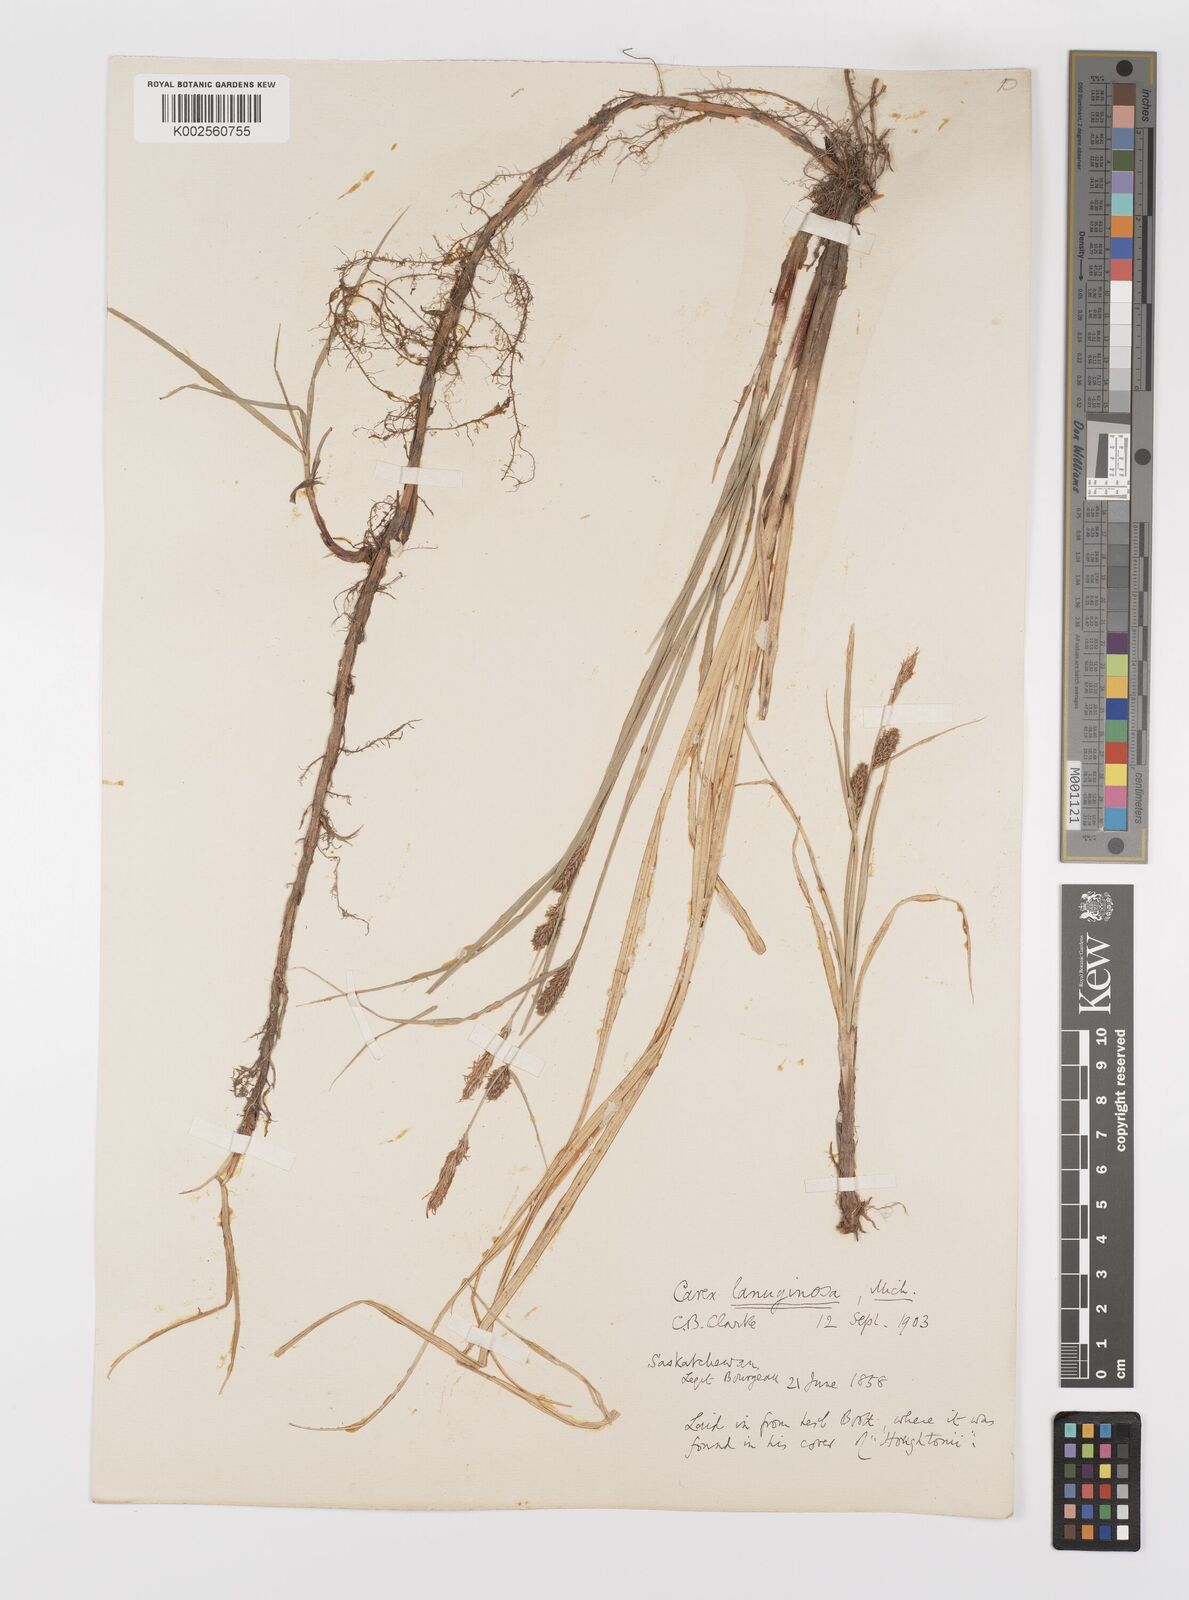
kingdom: Plantae
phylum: Tracheophyta
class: Liliopsida
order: Poales
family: Cyperaceae
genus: Carex
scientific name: Carex lasiocarpa
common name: Slender sedge
